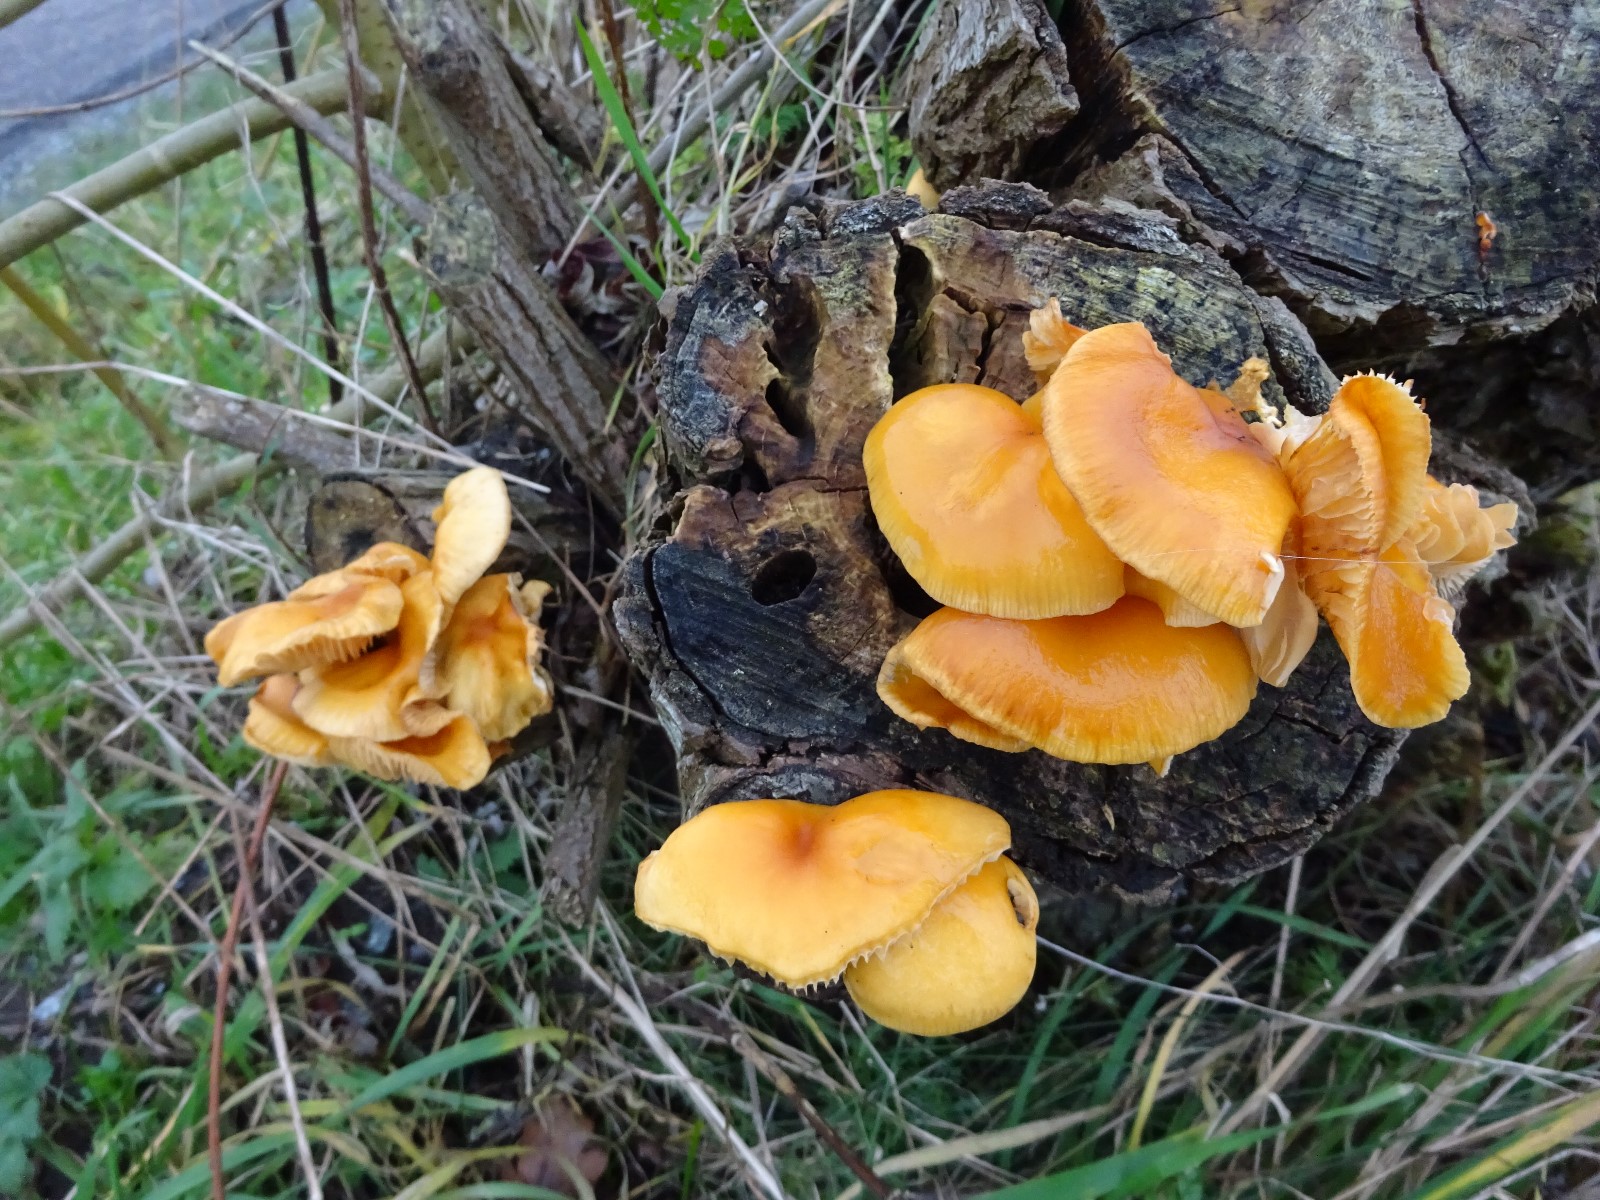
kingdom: Fungi
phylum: Basidiomycota
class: Agaricomycetes
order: Agaricales
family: Physalacriaceae
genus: Flammulina
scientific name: Flammulina
